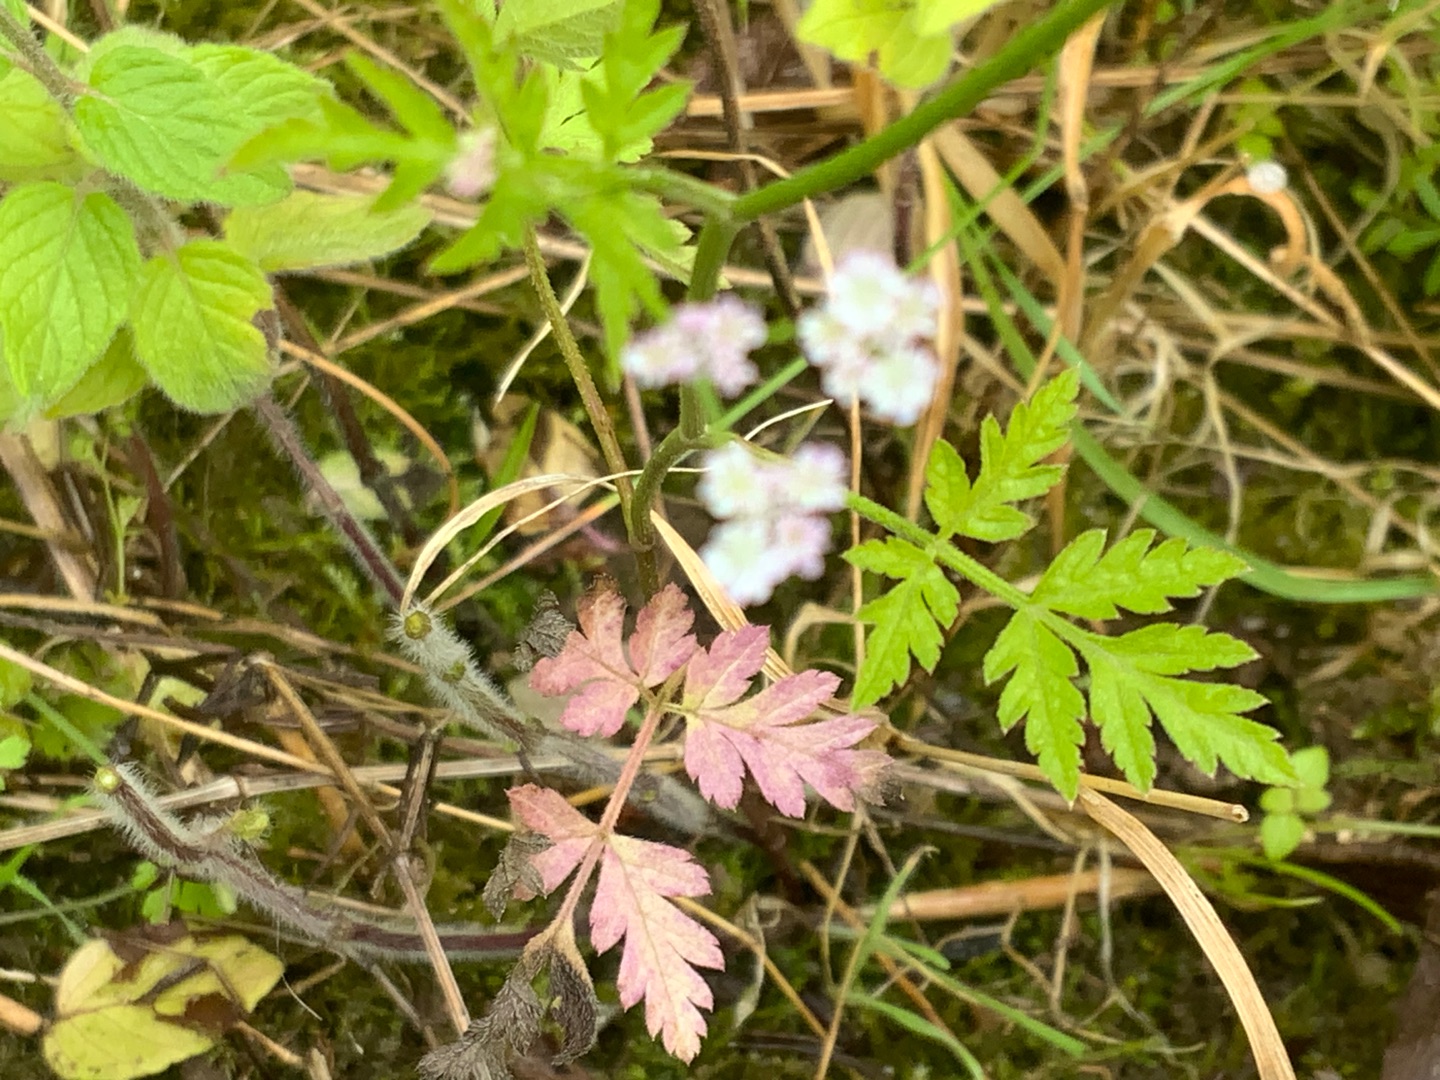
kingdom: Plantae
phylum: Tracheophyta
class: Magnoliopsida
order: Apiales
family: Apiaceae
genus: Torilis
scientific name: Torilis japonica
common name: Hvas randfrø
